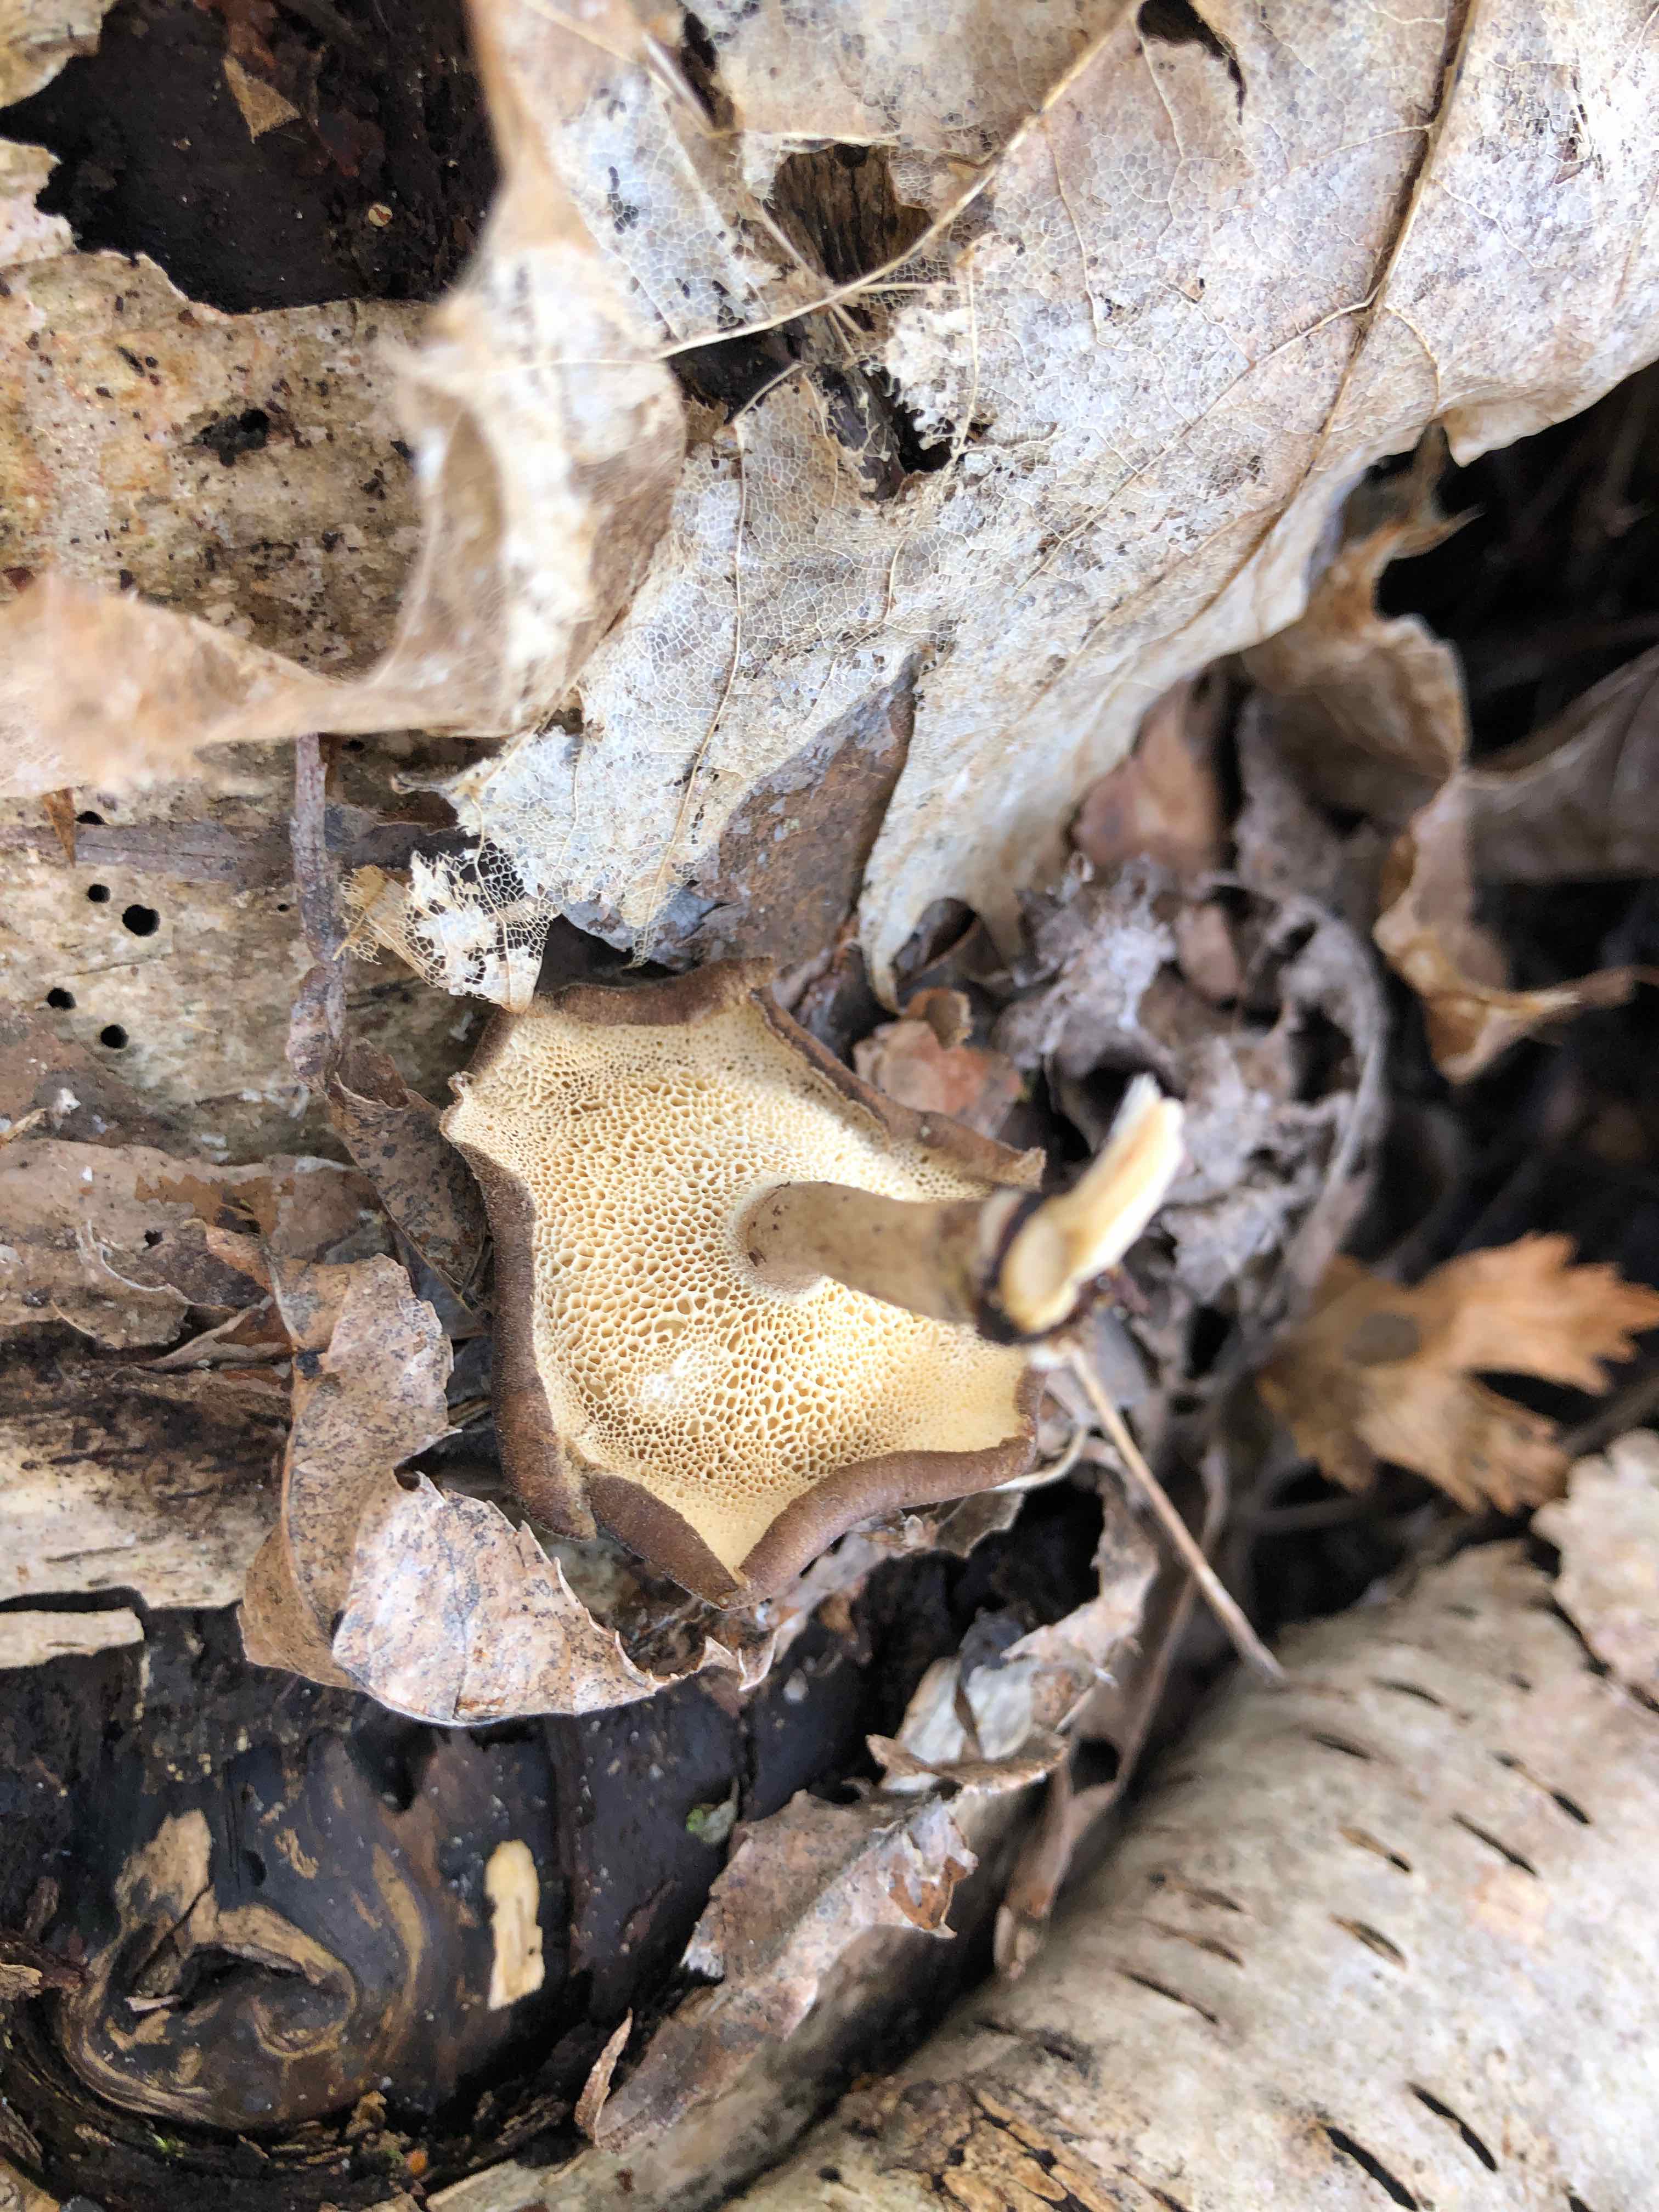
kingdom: Fungi
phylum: Basidiomycota
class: Agaricomycetes
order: Polyporales
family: Polyporaceae
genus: Lentinus
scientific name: Lentinus brumalis
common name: vinter-stilkporesvamp
